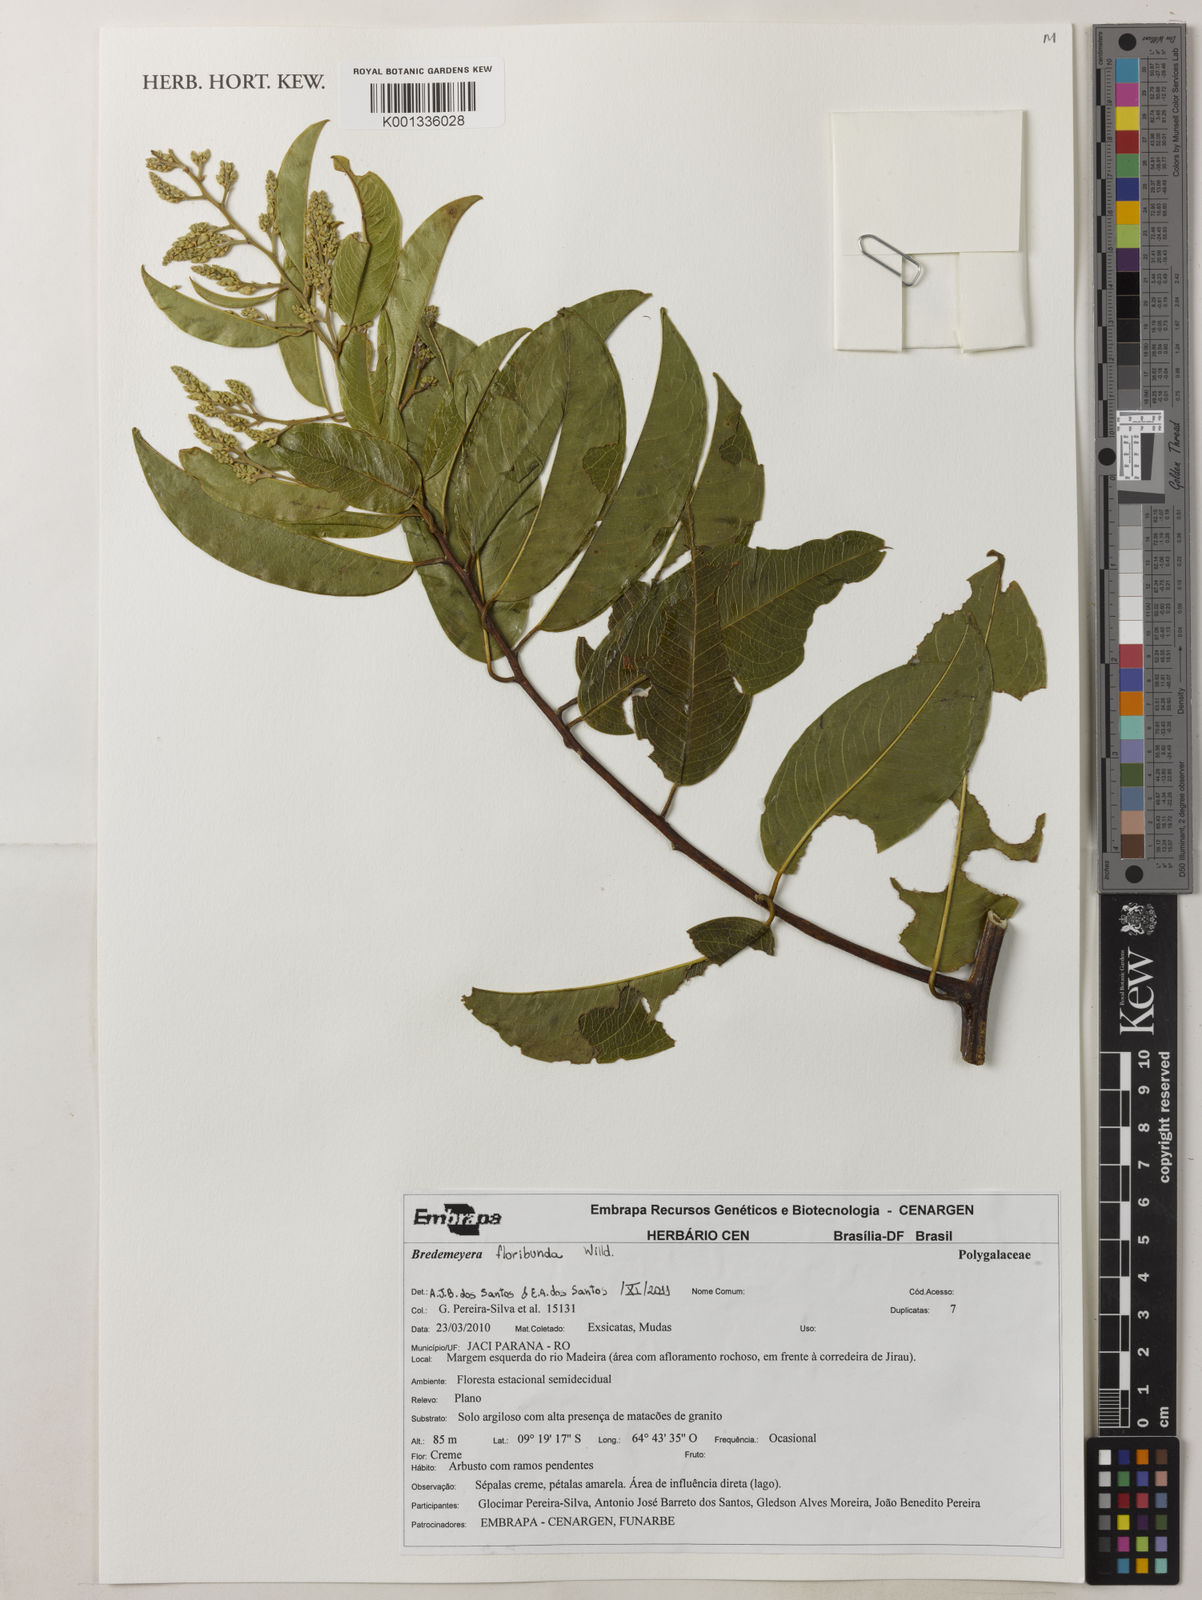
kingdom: Plantae
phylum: Tracheophyta
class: Magnoliopsida
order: Fabales
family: Polygalaceae
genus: Bredemeyera
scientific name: Bredemeyera floribunda
